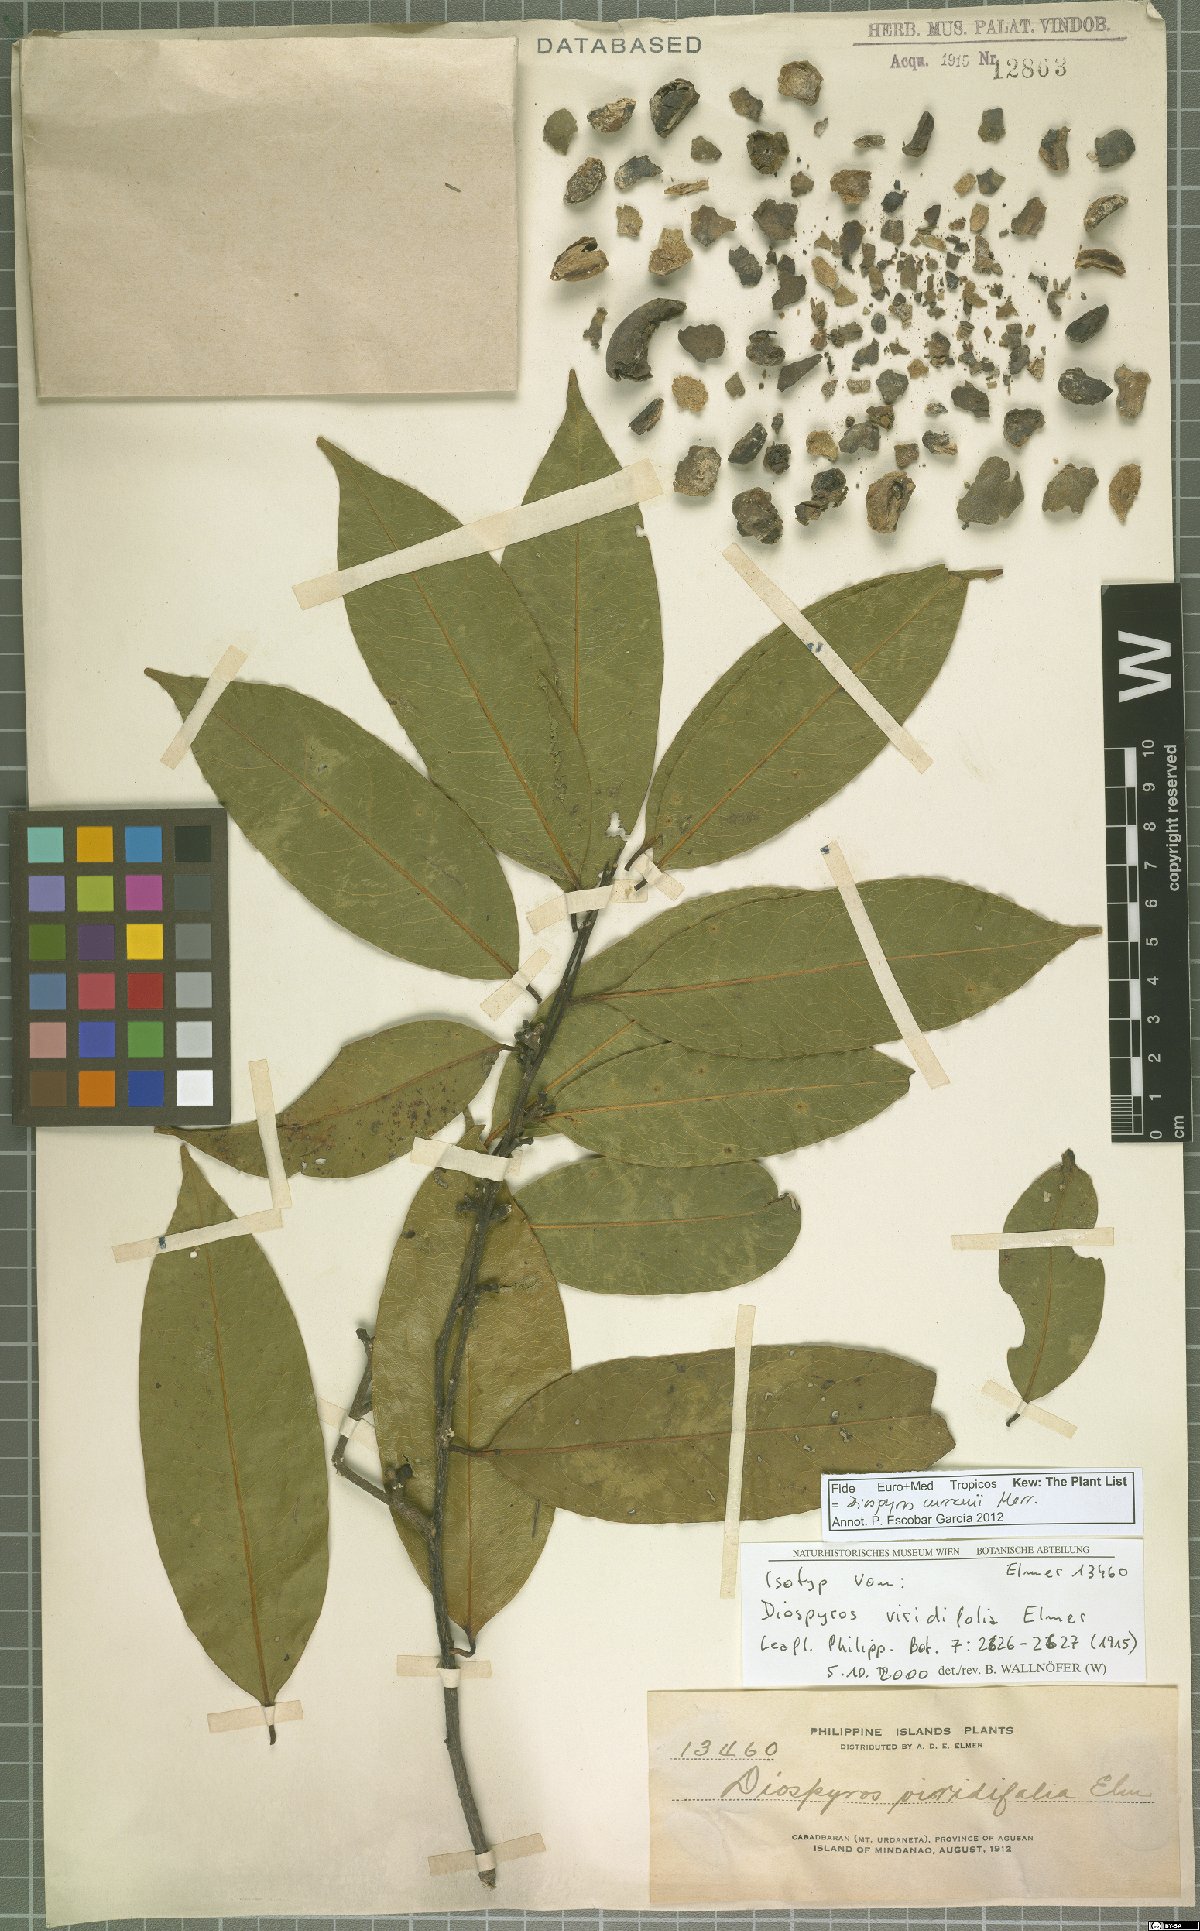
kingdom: Plantae
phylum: Tracheophyta
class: Magnoliopsida
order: Ericales
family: Ebenaceae
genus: Diospyros
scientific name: Diospyros curranii
